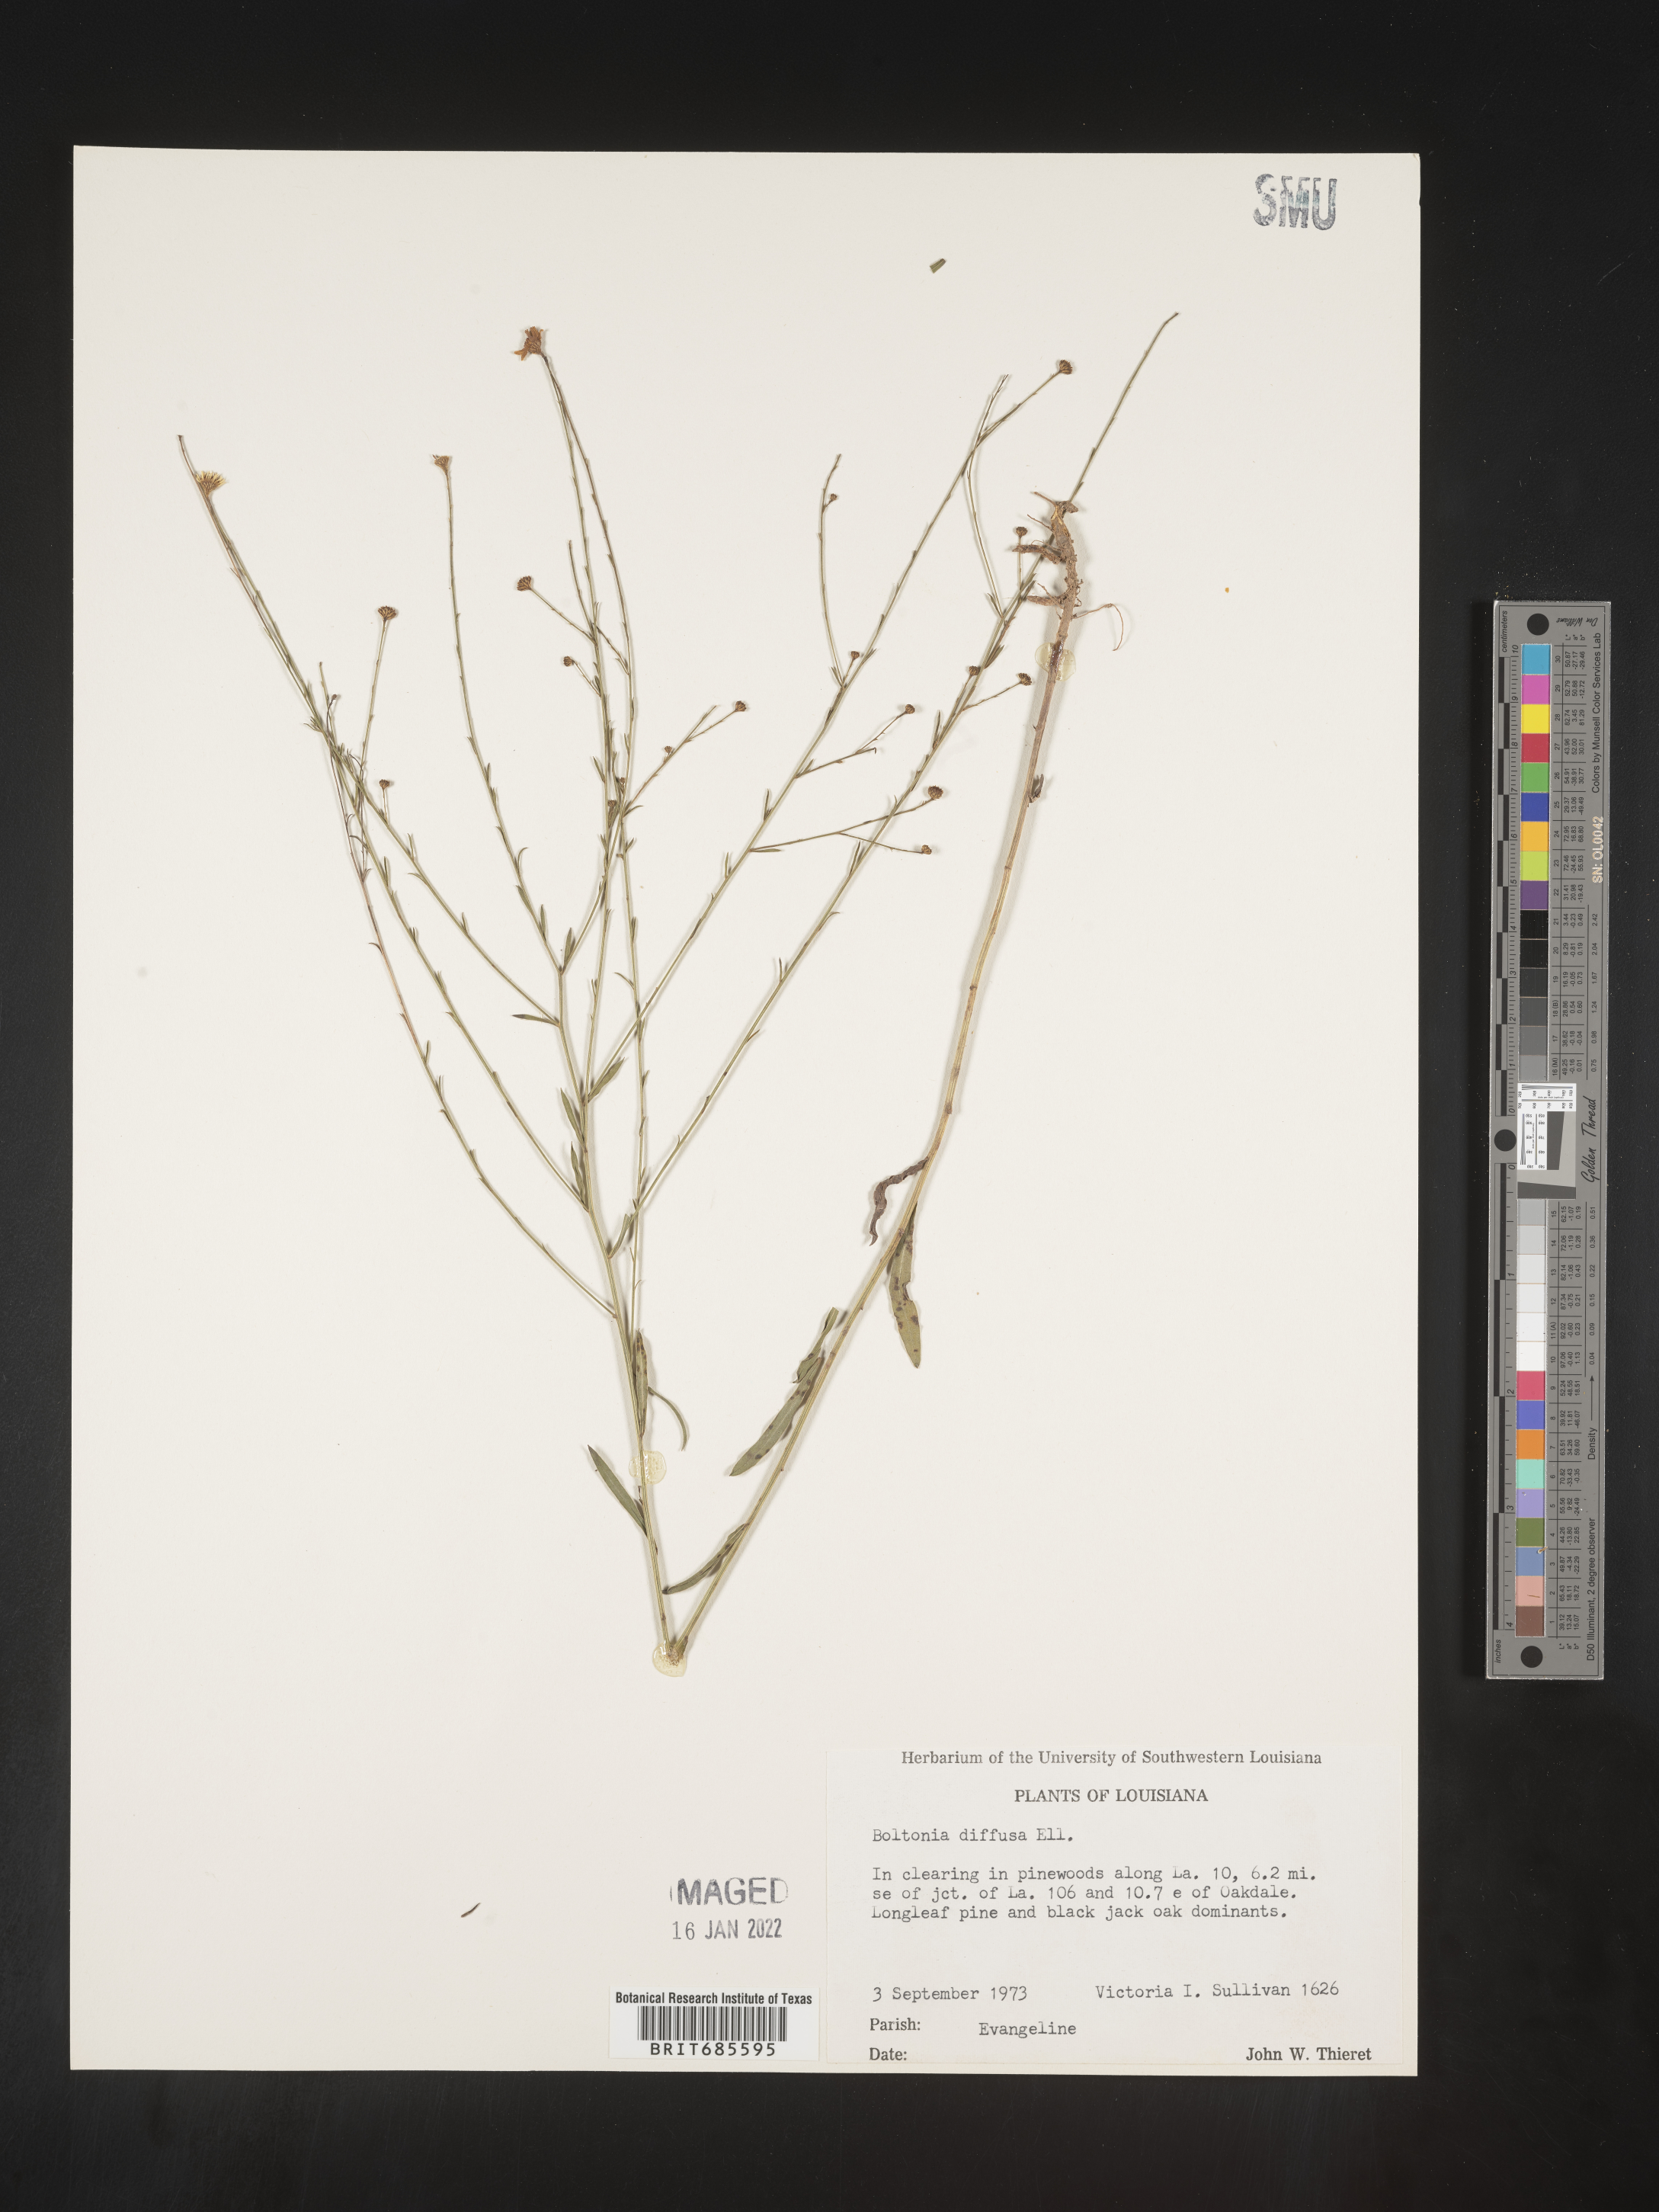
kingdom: Plantae
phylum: Tracheophyta
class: Magnoliopsida
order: Asterales
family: Asteraceae
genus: Boltonia
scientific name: Boltonia diffusa
